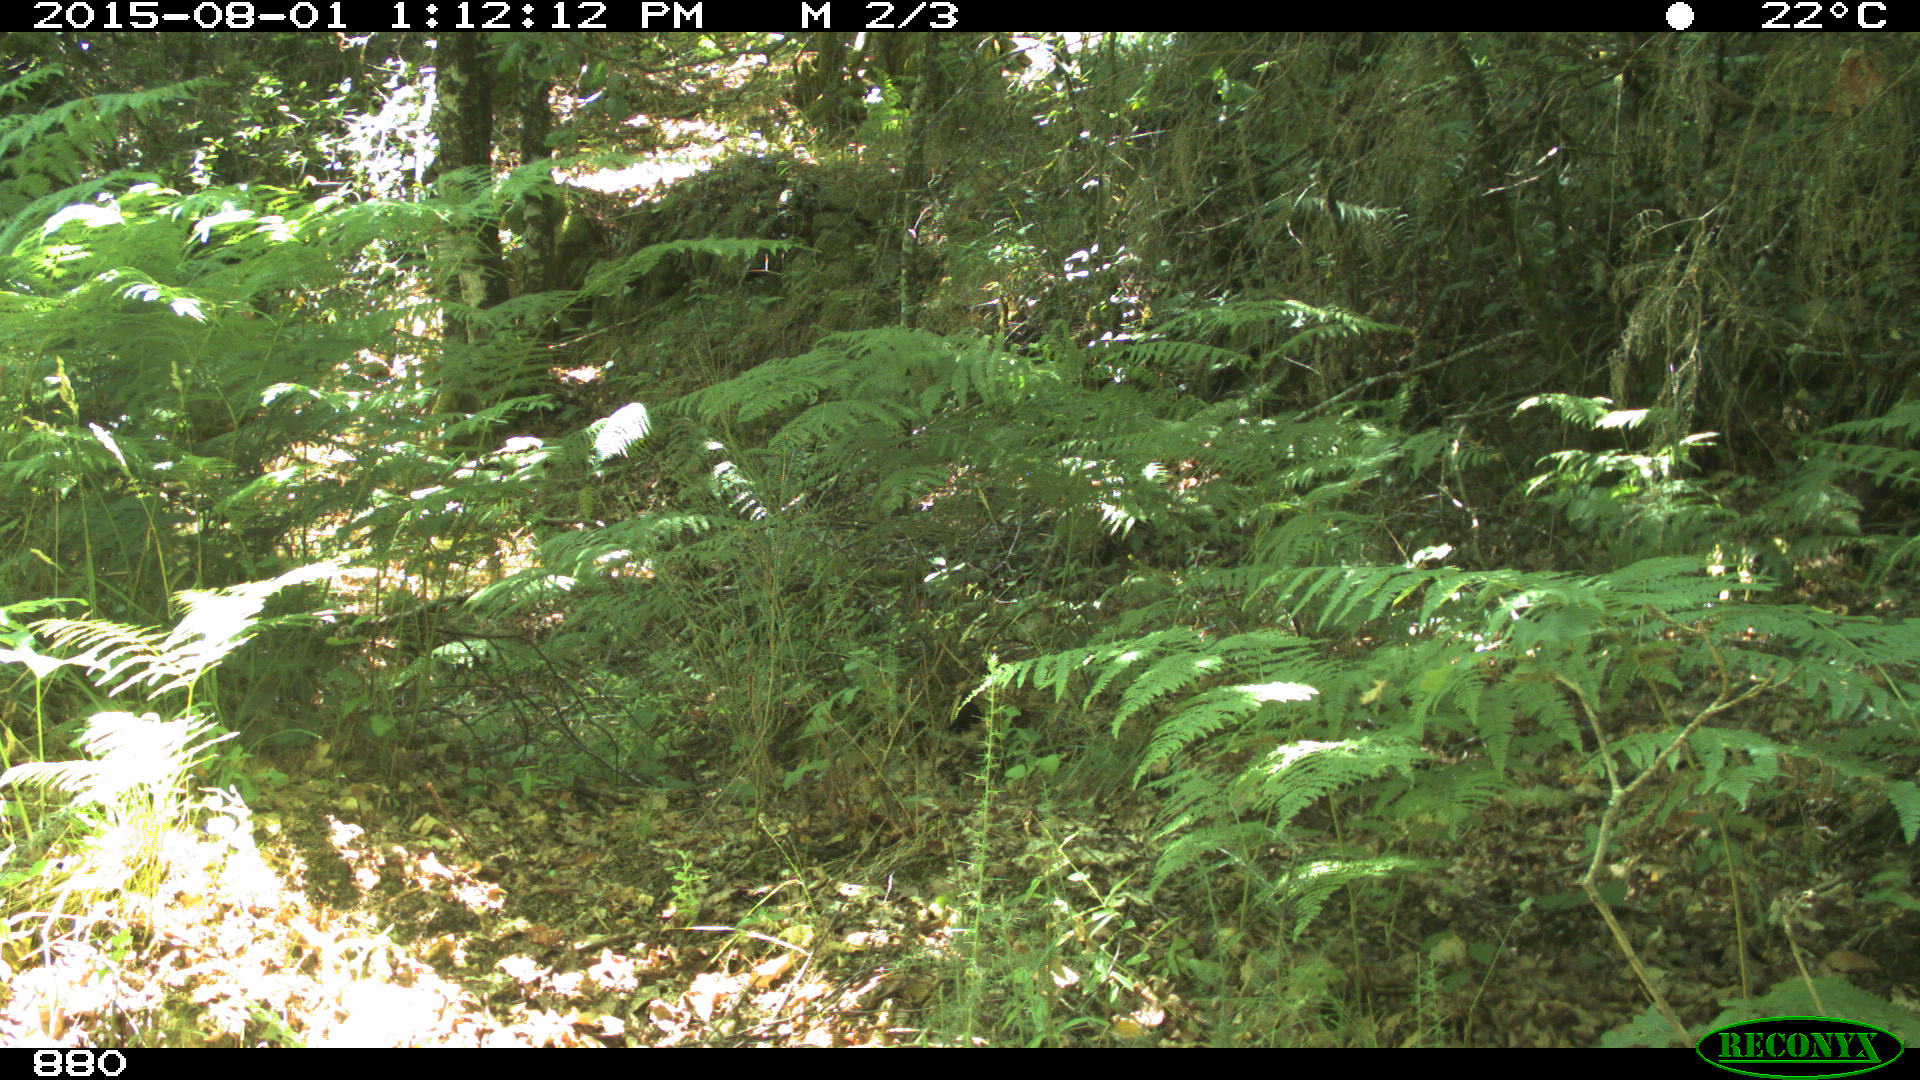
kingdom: Animalia
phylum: Chordata
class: Mammalia
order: Artiodactyla
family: Cervidae
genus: Capreolus
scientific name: Capreolus capreolus
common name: Western roe deer
